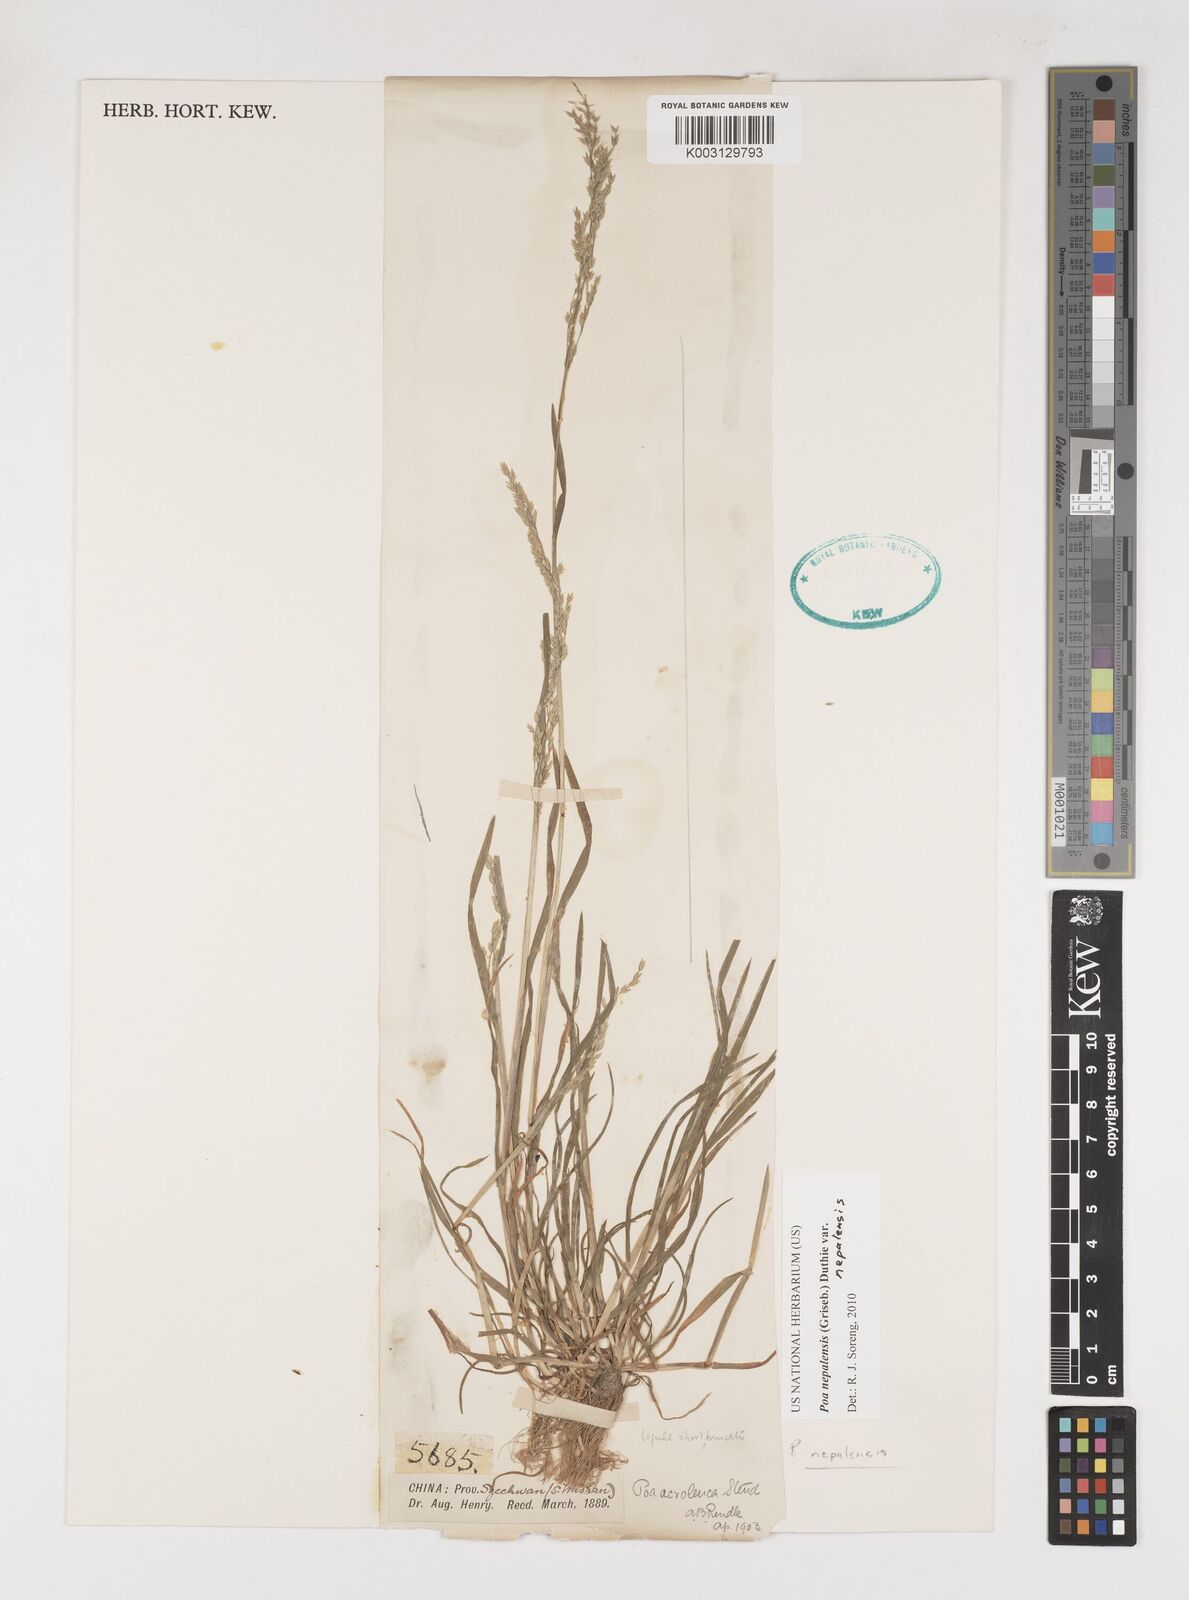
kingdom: Plantae
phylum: Tracheophyta
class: Liliopsida
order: Poales
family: Poaceae
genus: Poa
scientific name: Poa nepalensis
